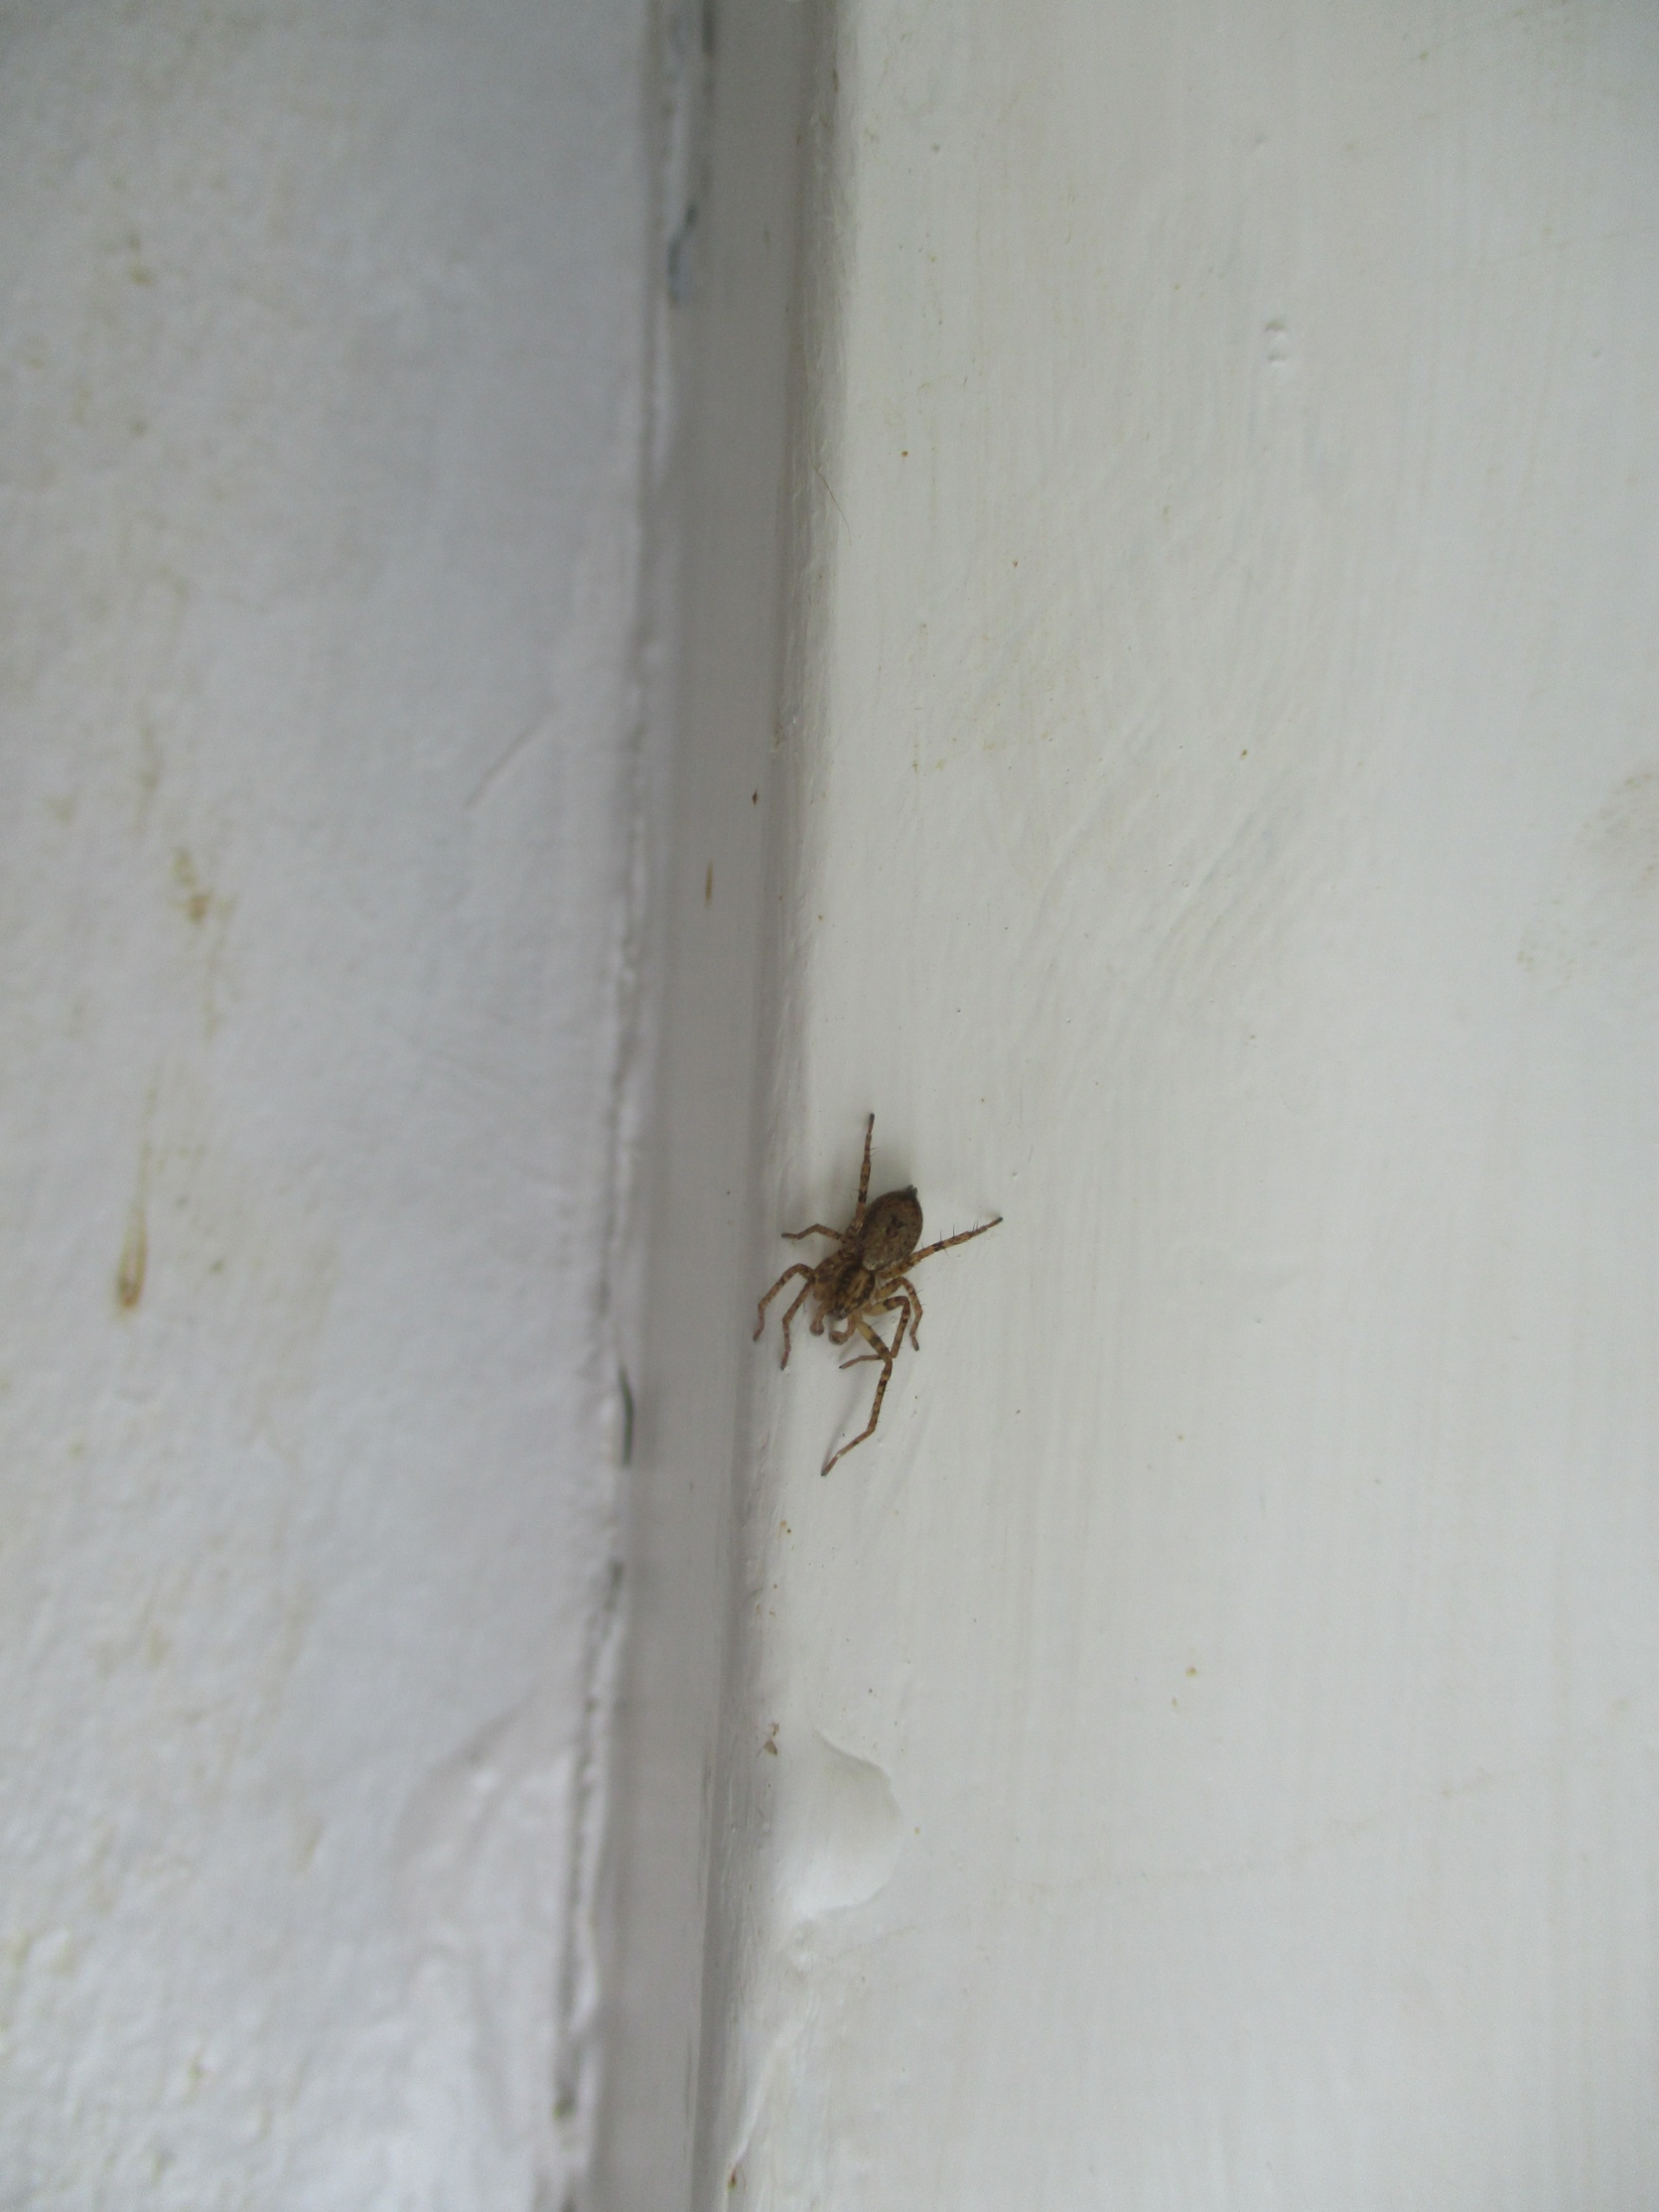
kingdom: Animalia
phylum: Arthropoda
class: Arachnida
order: Araneae
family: Anyphaenidae
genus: Anyphaena
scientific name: Anyphaena
